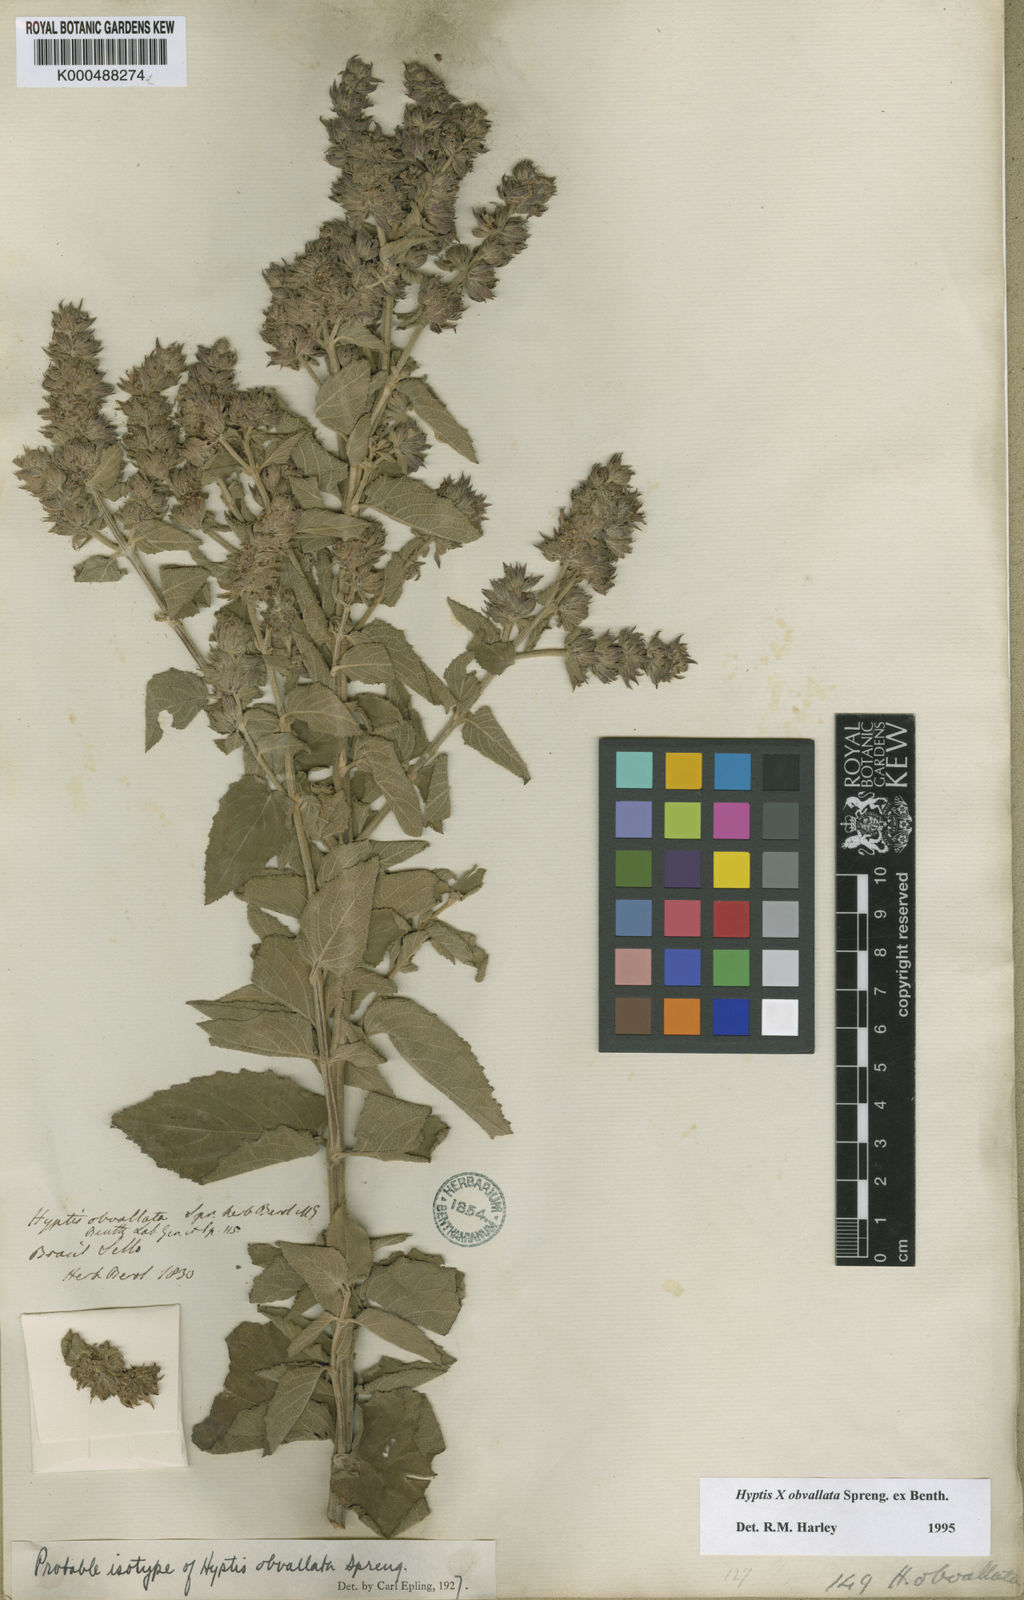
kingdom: Plantae
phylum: Tracheophyta
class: Magnoliopsida
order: Lamiales
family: Lamiaceae
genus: Cantinoa
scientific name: Cantinoa obvallata
